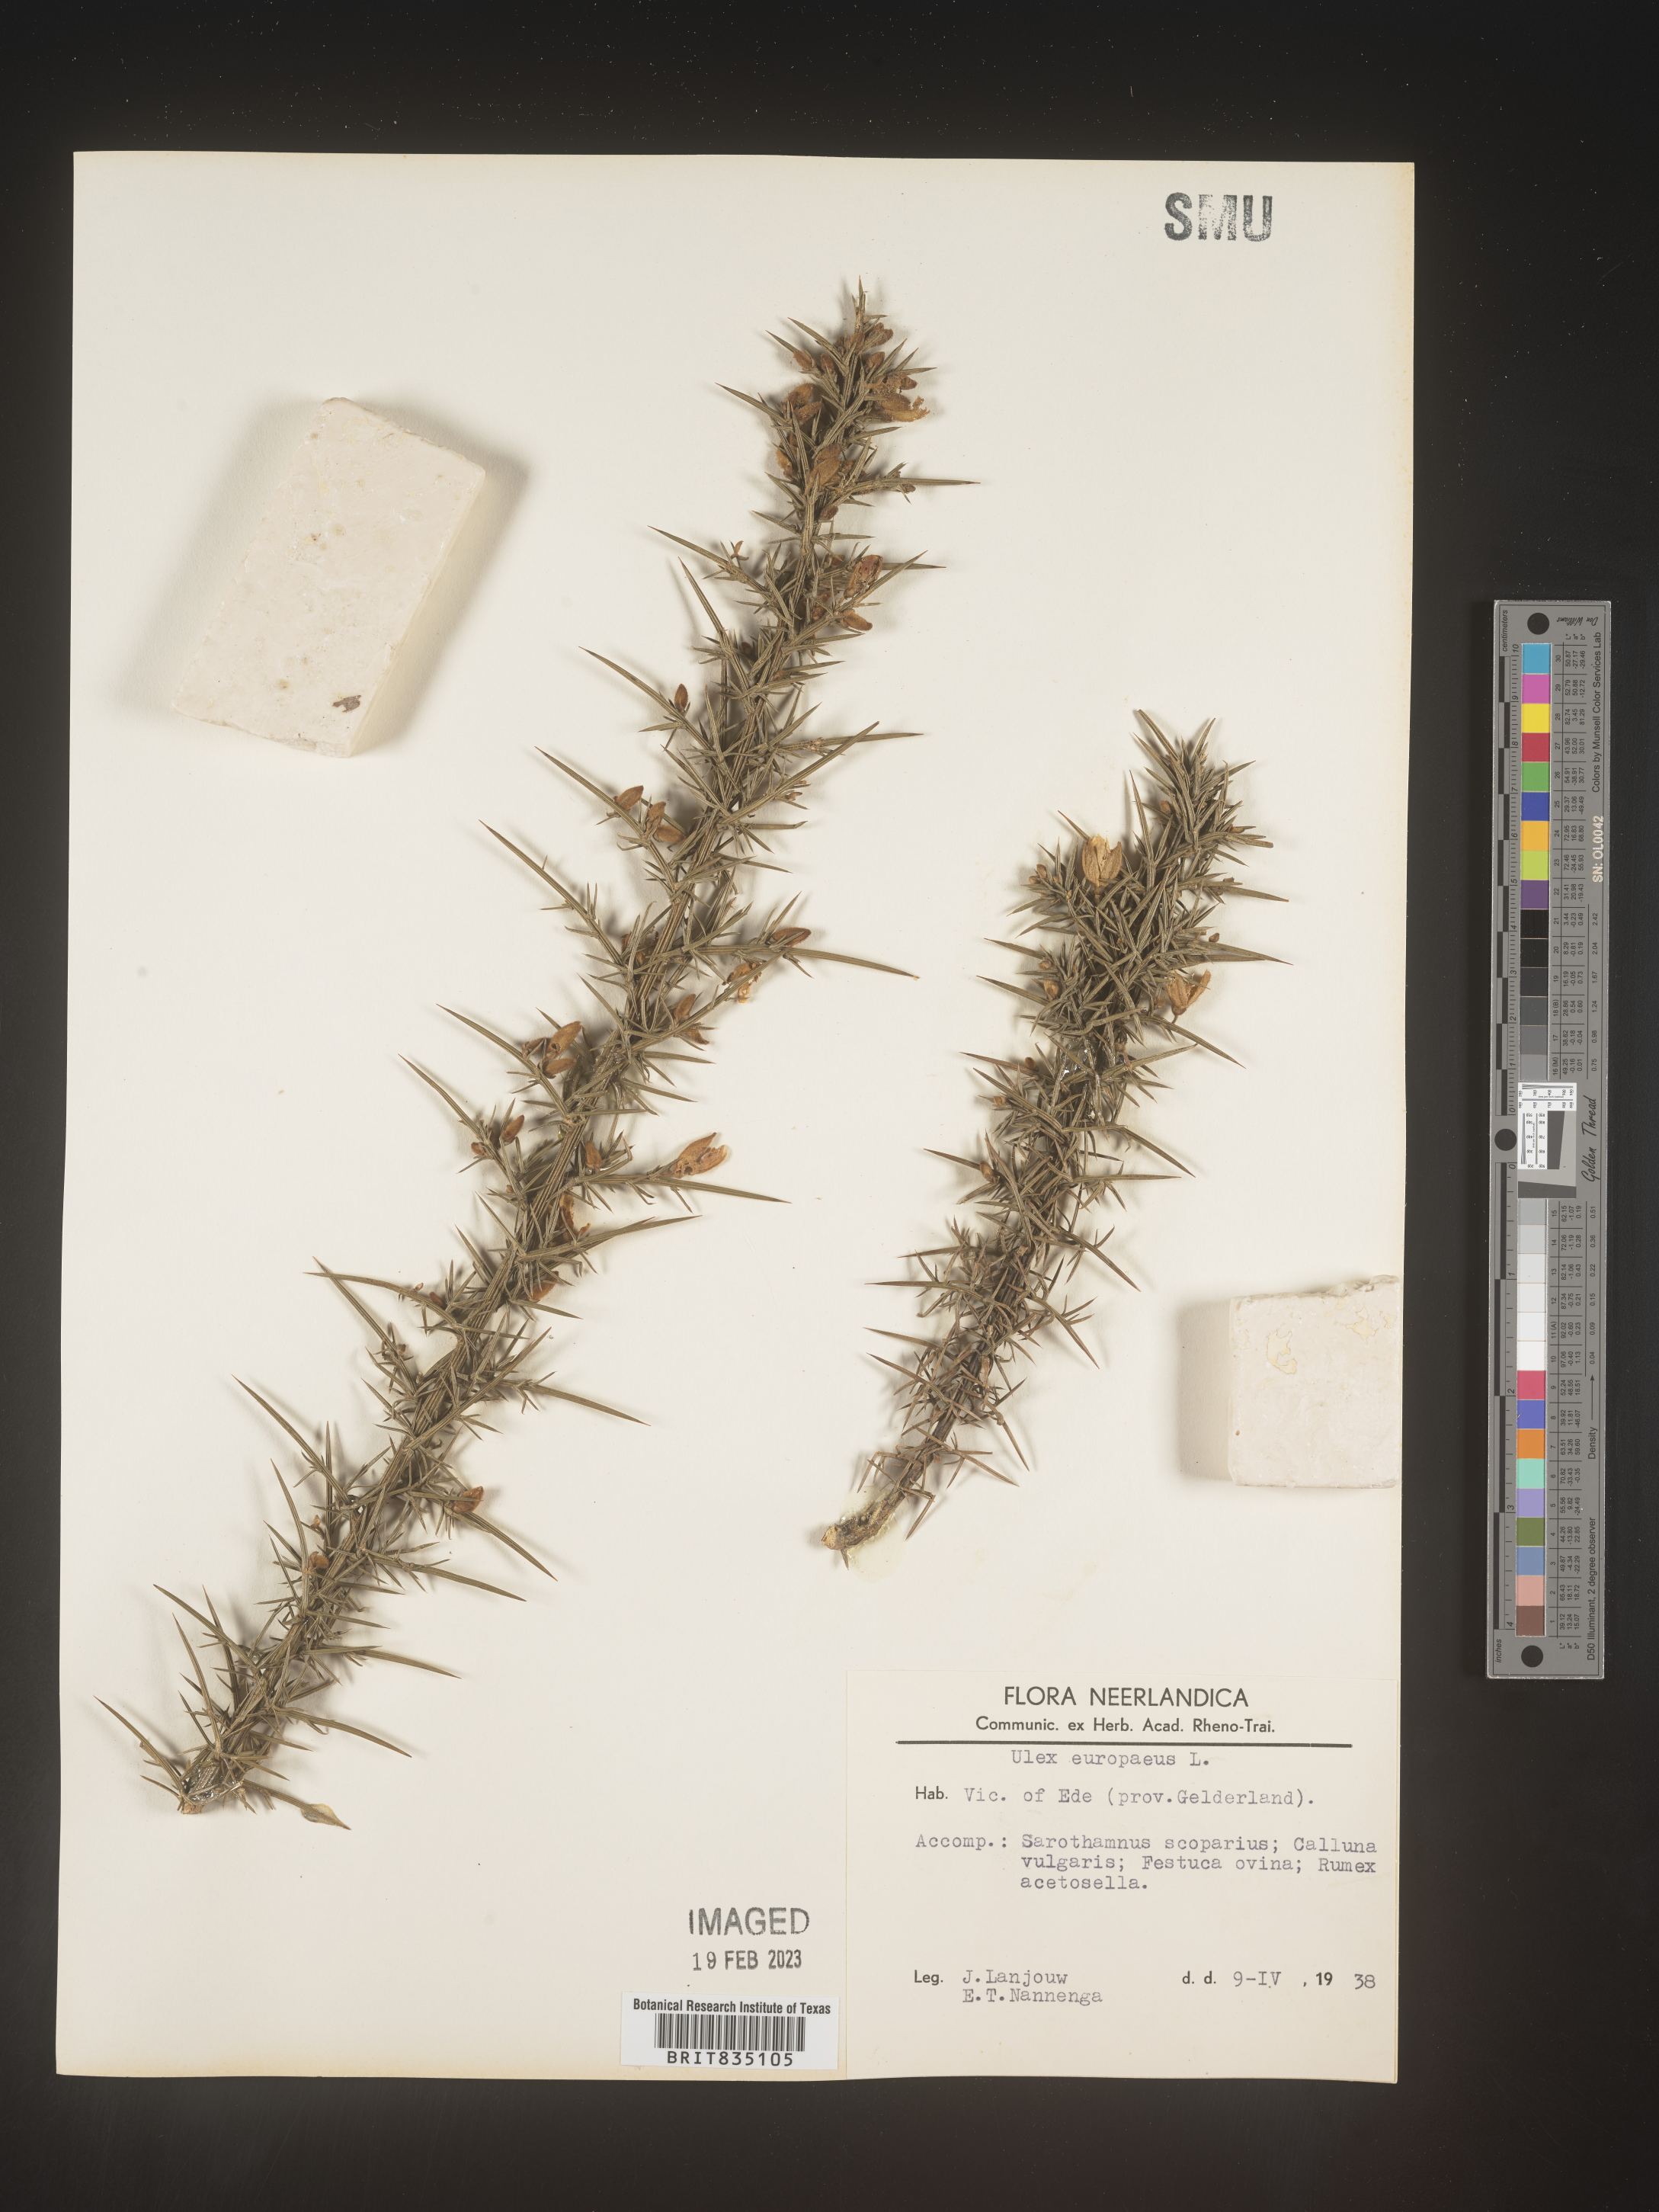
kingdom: Plantae
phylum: Tracheophyta
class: Magnoliopsida
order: Fabales
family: Fabaceae
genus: Ulex
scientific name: Ulex
